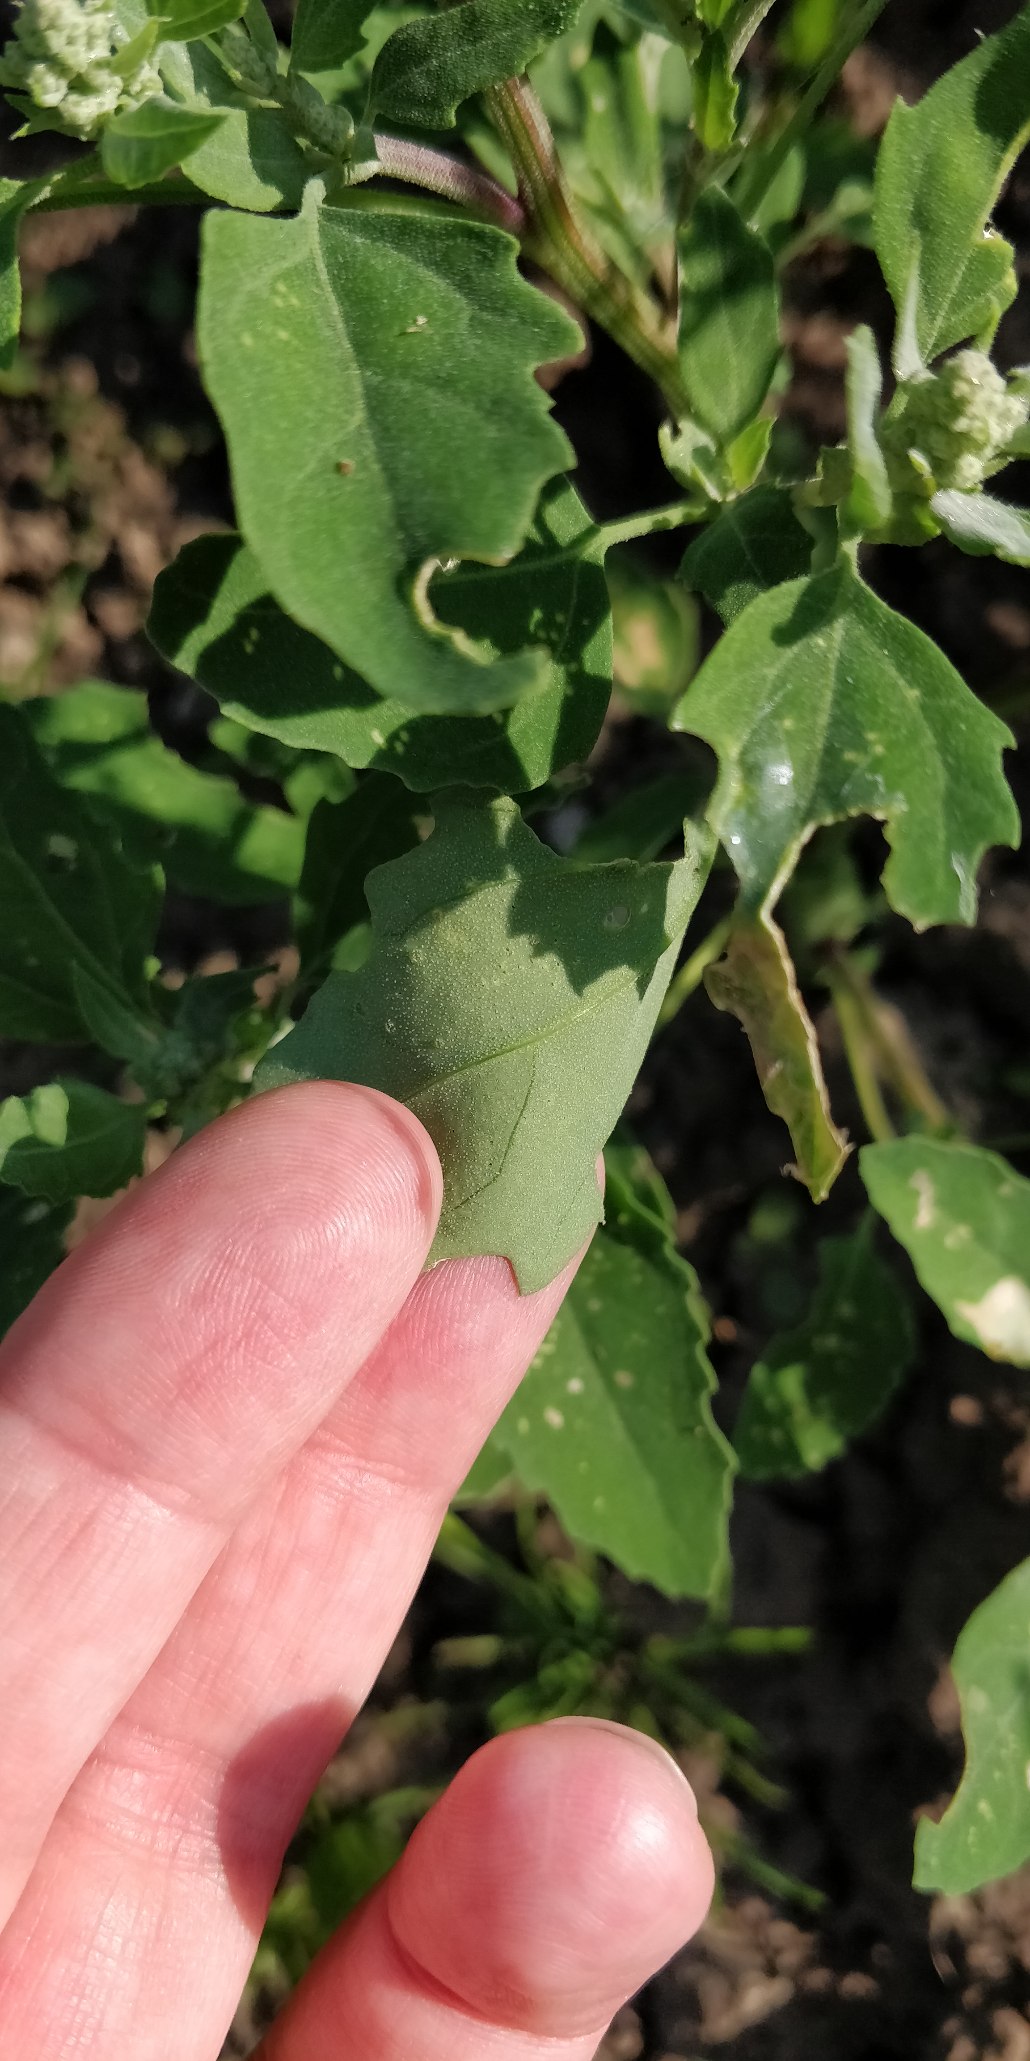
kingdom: Plantae
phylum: Tracheophyta
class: Magnoliopsida
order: Caryophyllales
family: Amaranthaceae
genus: Chenopodium
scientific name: Chenopodium album
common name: Hvidmelet gåsefod
